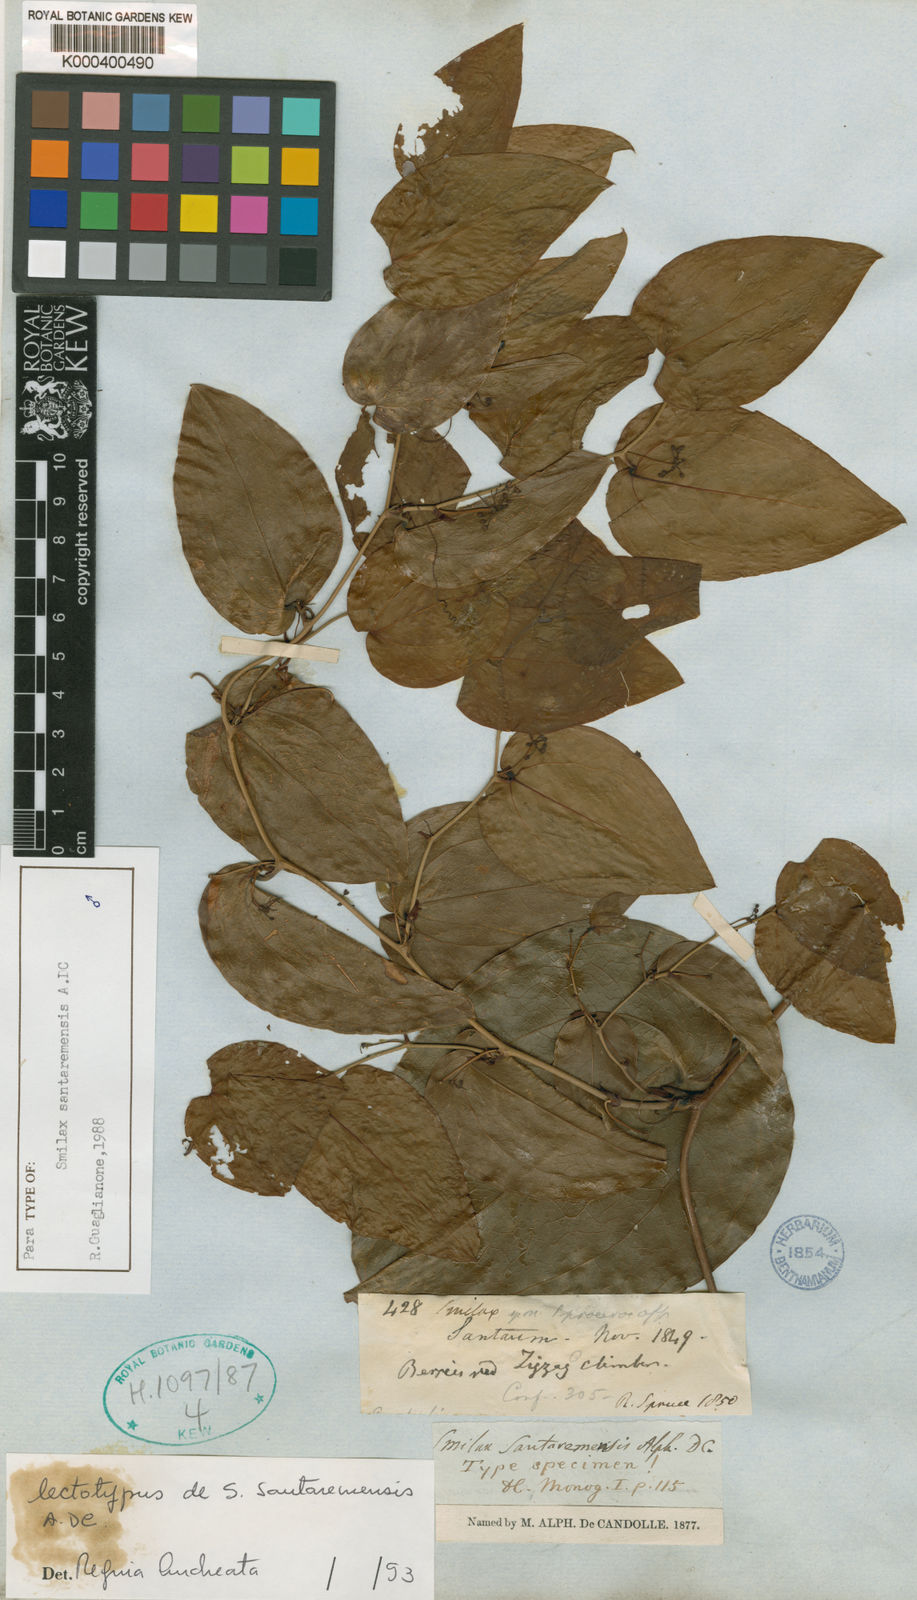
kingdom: Plantae
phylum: Tracheophyta
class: Liliopsida
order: Liliales
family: Smilacaceae
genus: Smilax
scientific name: Smilax santaremensis
